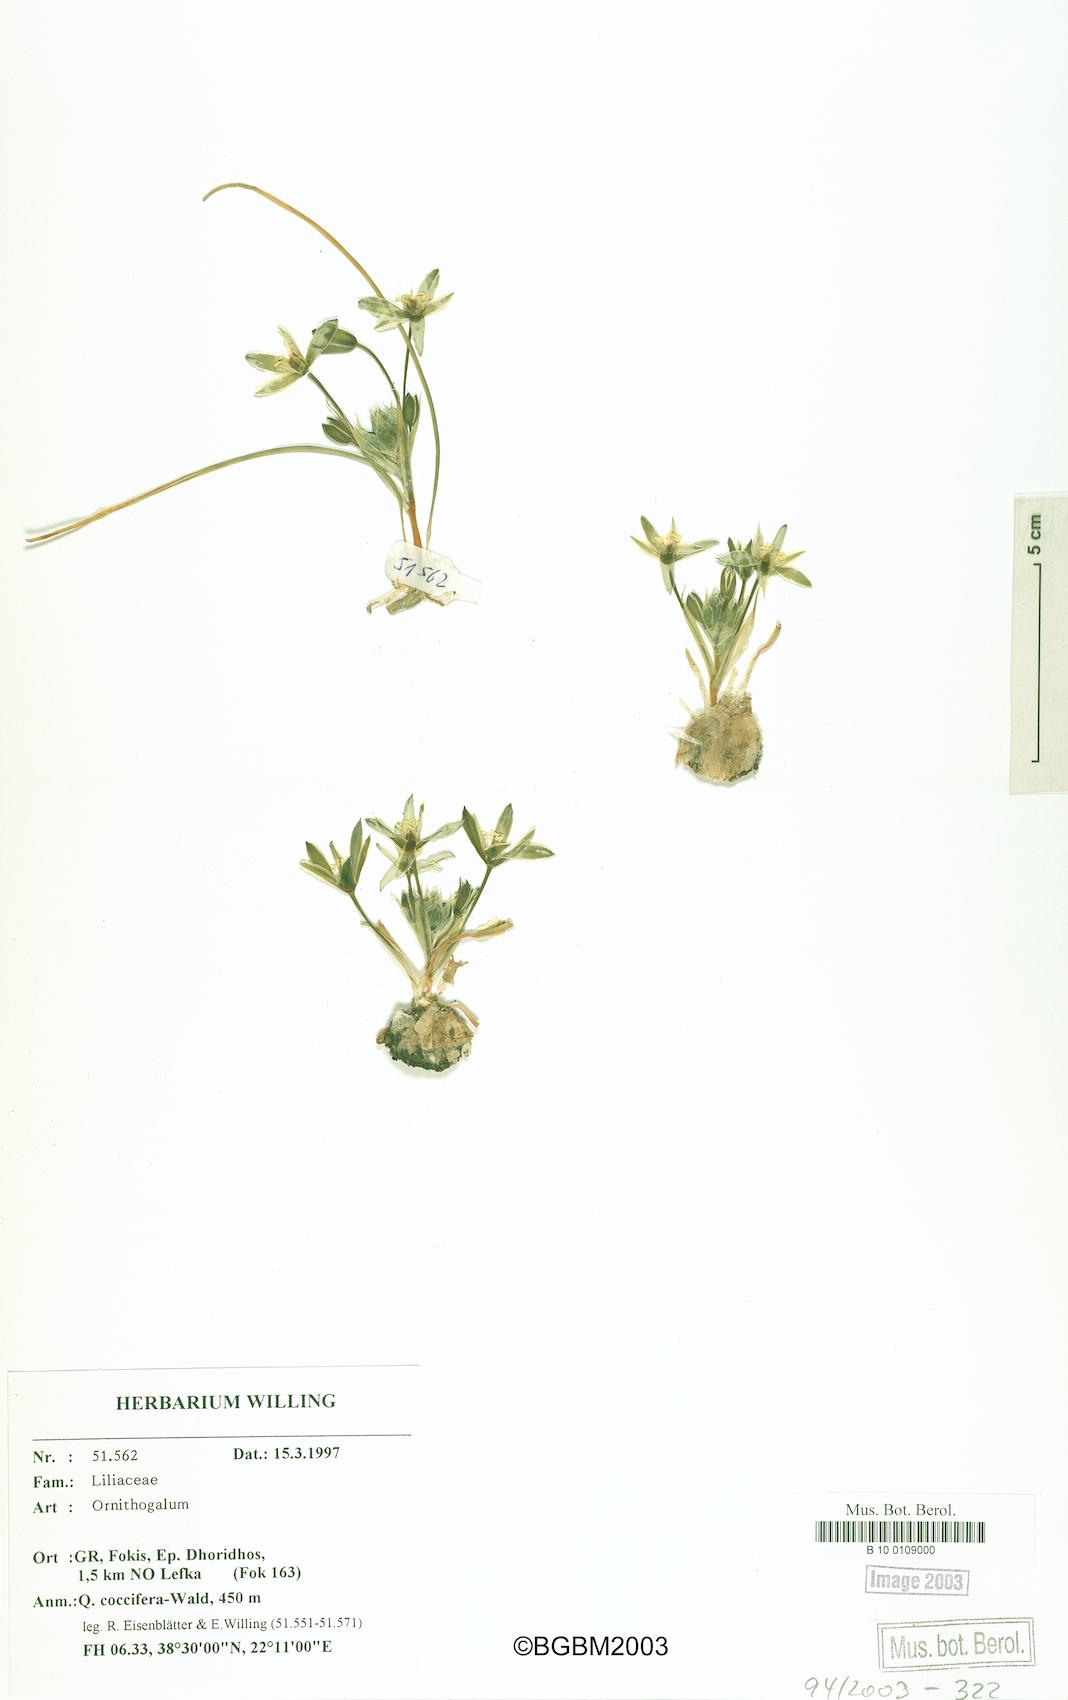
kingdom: Plantae
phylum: Tracheophyta
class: Liliopsida
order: Asparagales
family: Asparagaceae
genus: Ornithogalum
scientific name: Ornithogalum
